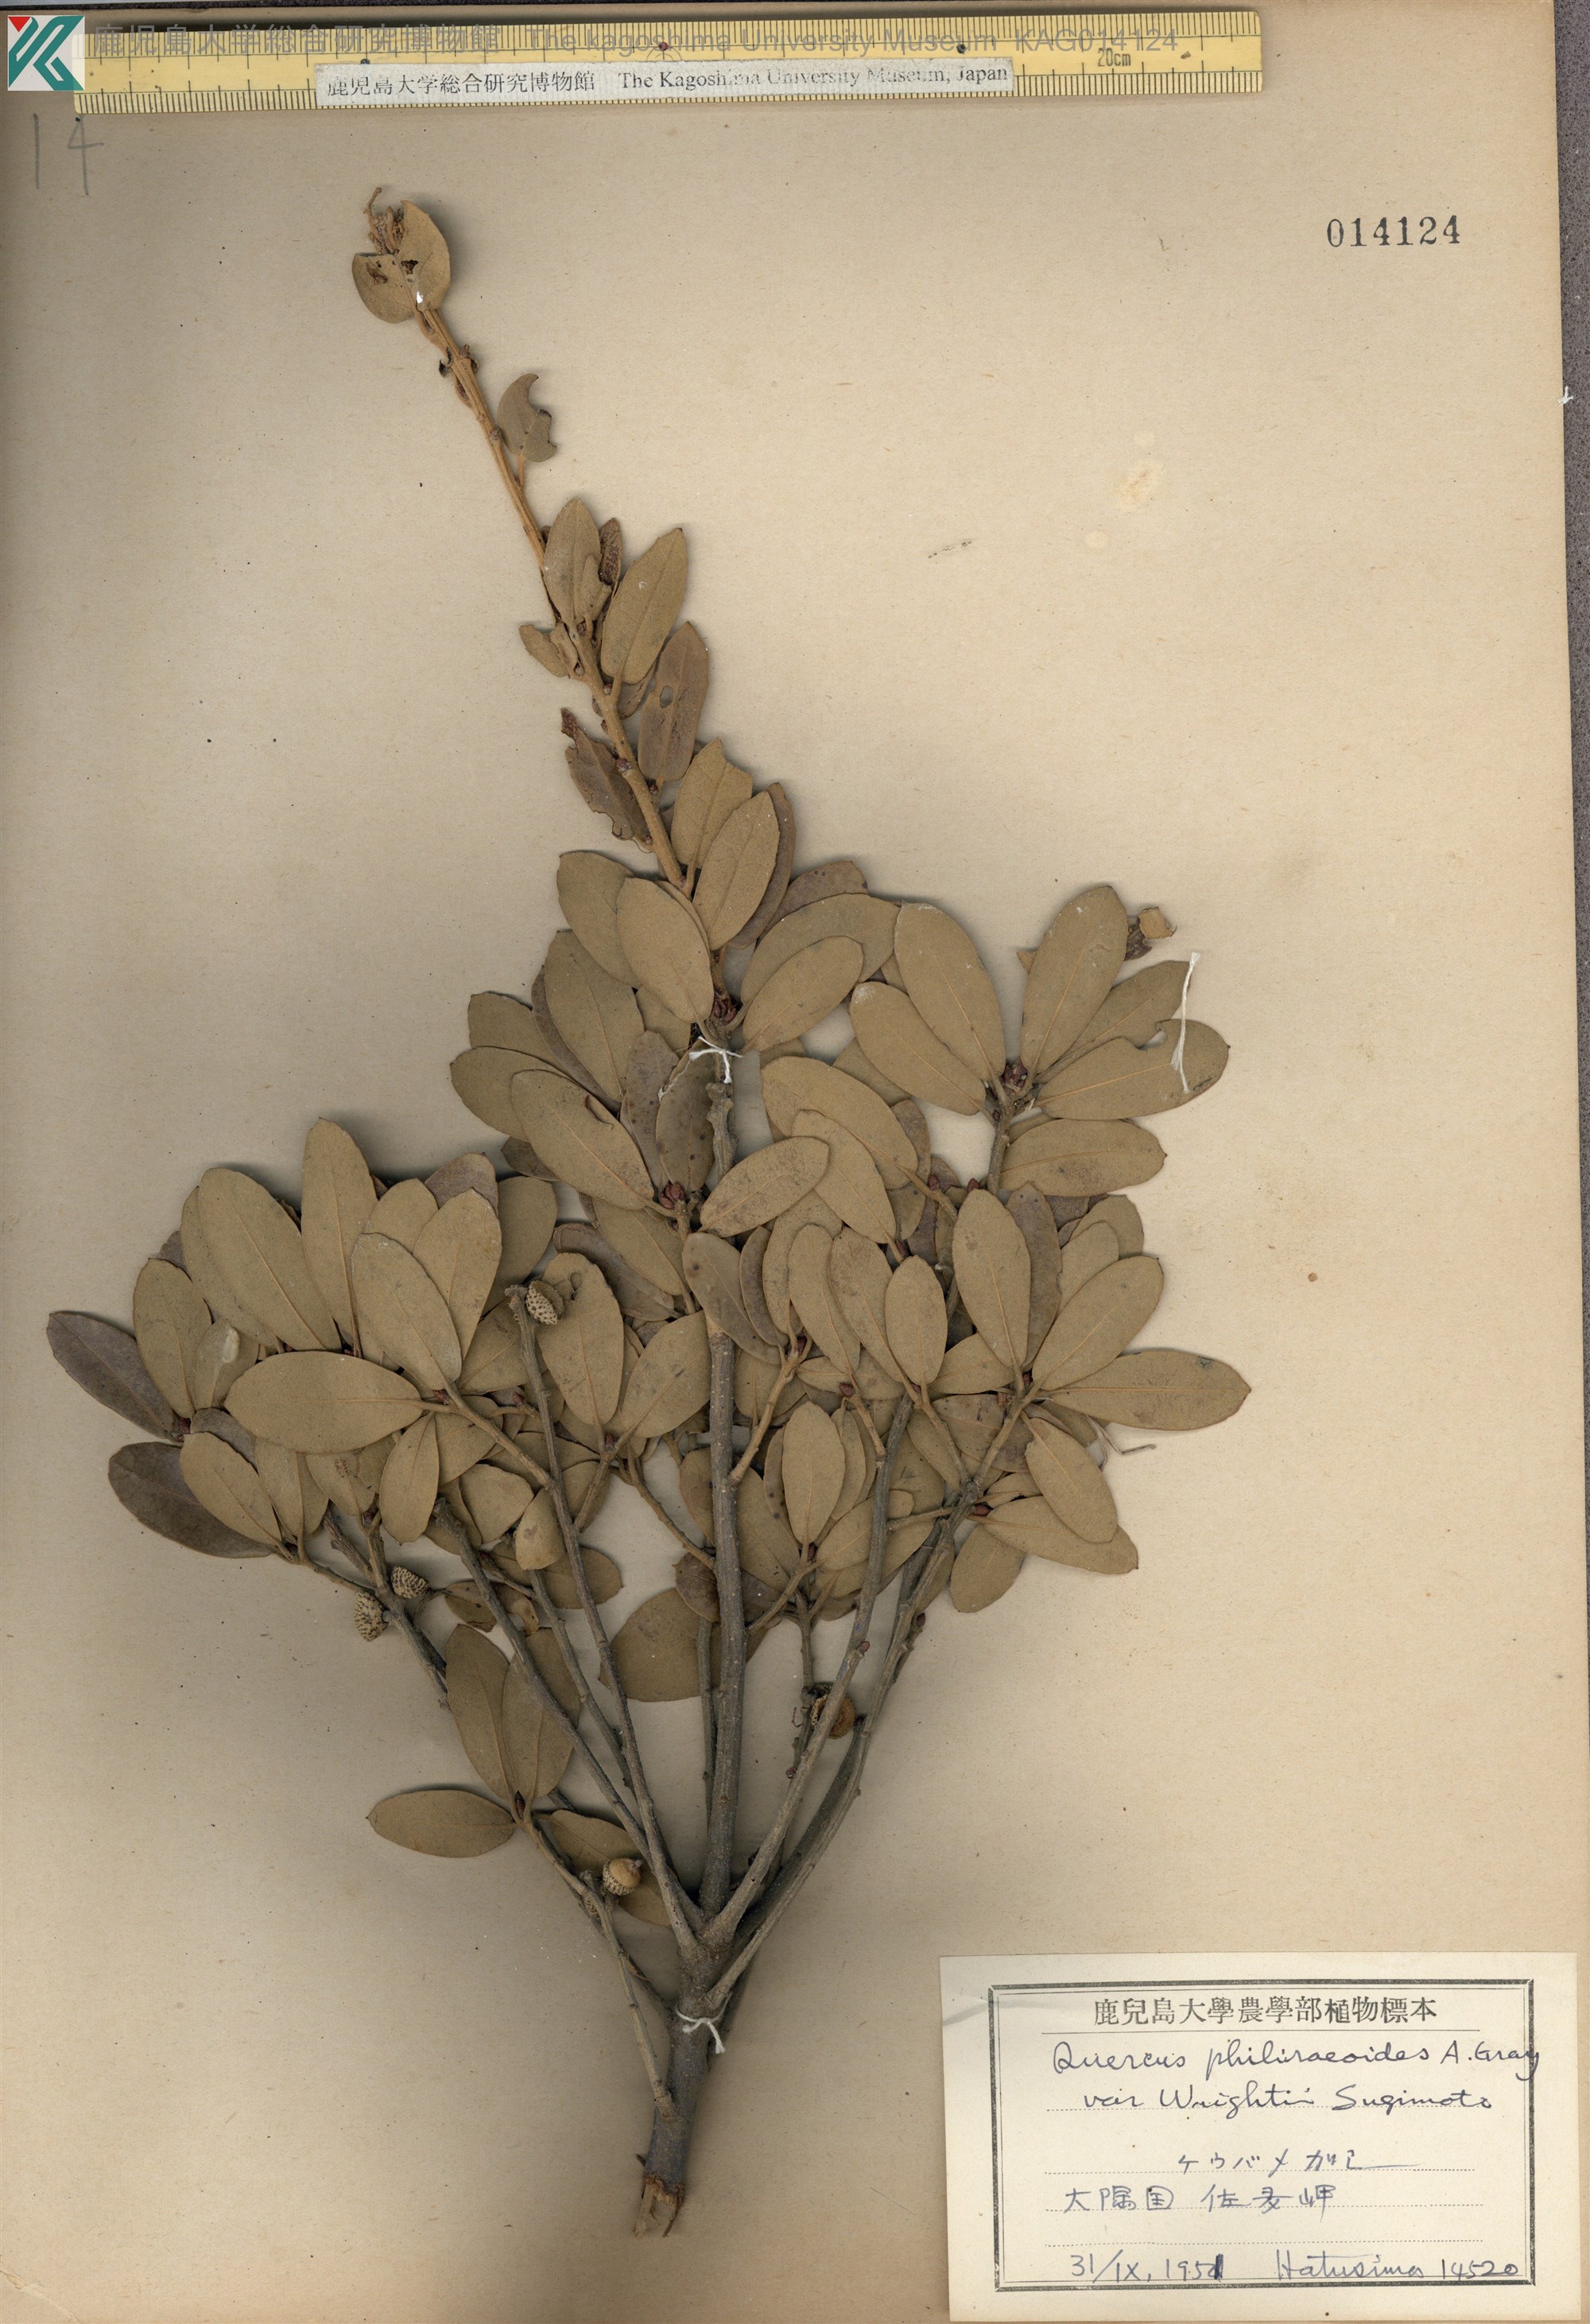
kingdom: Plantae
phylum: Tracheophyta
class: Magnoliopsida
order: Fagales
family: Fagaceae
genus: Quercus
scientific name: Quercus phillyreoides
